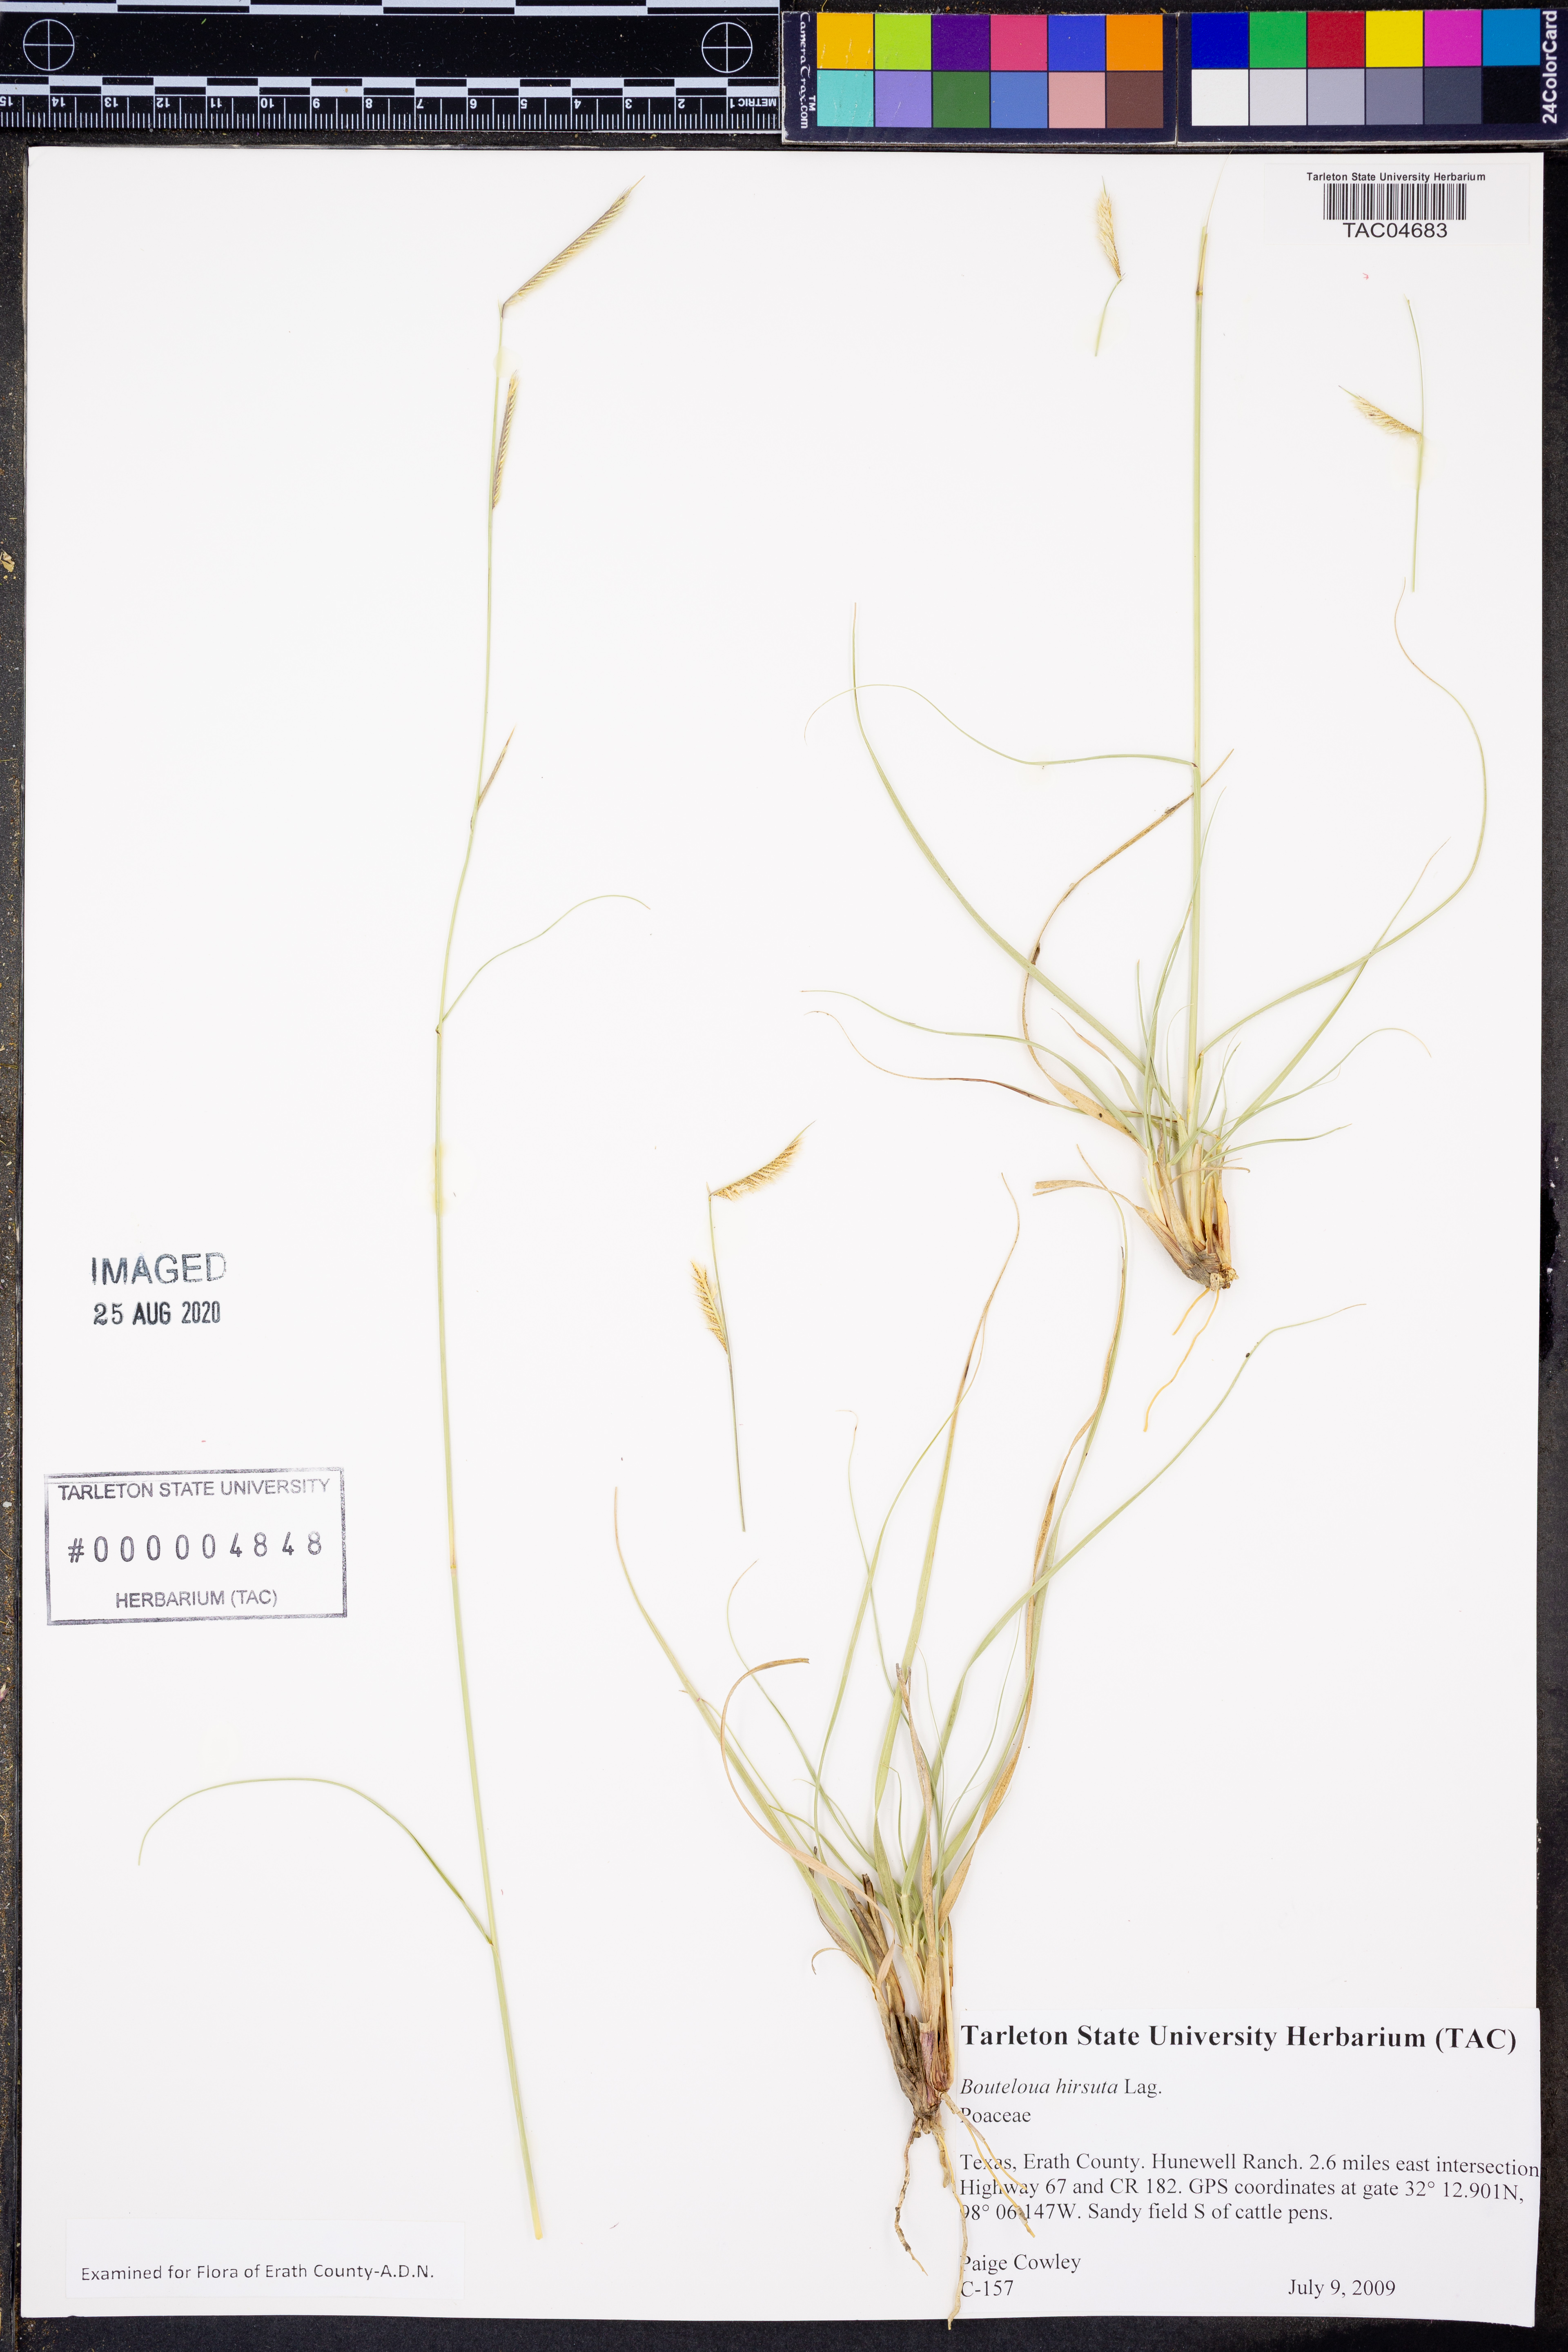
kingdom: Plantae
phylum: Tracheophyta
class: Liliopsida
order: Poales
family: Poaceae
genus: Bouteloua
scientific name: Bouteloua hirsuta
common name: Hairy grama
